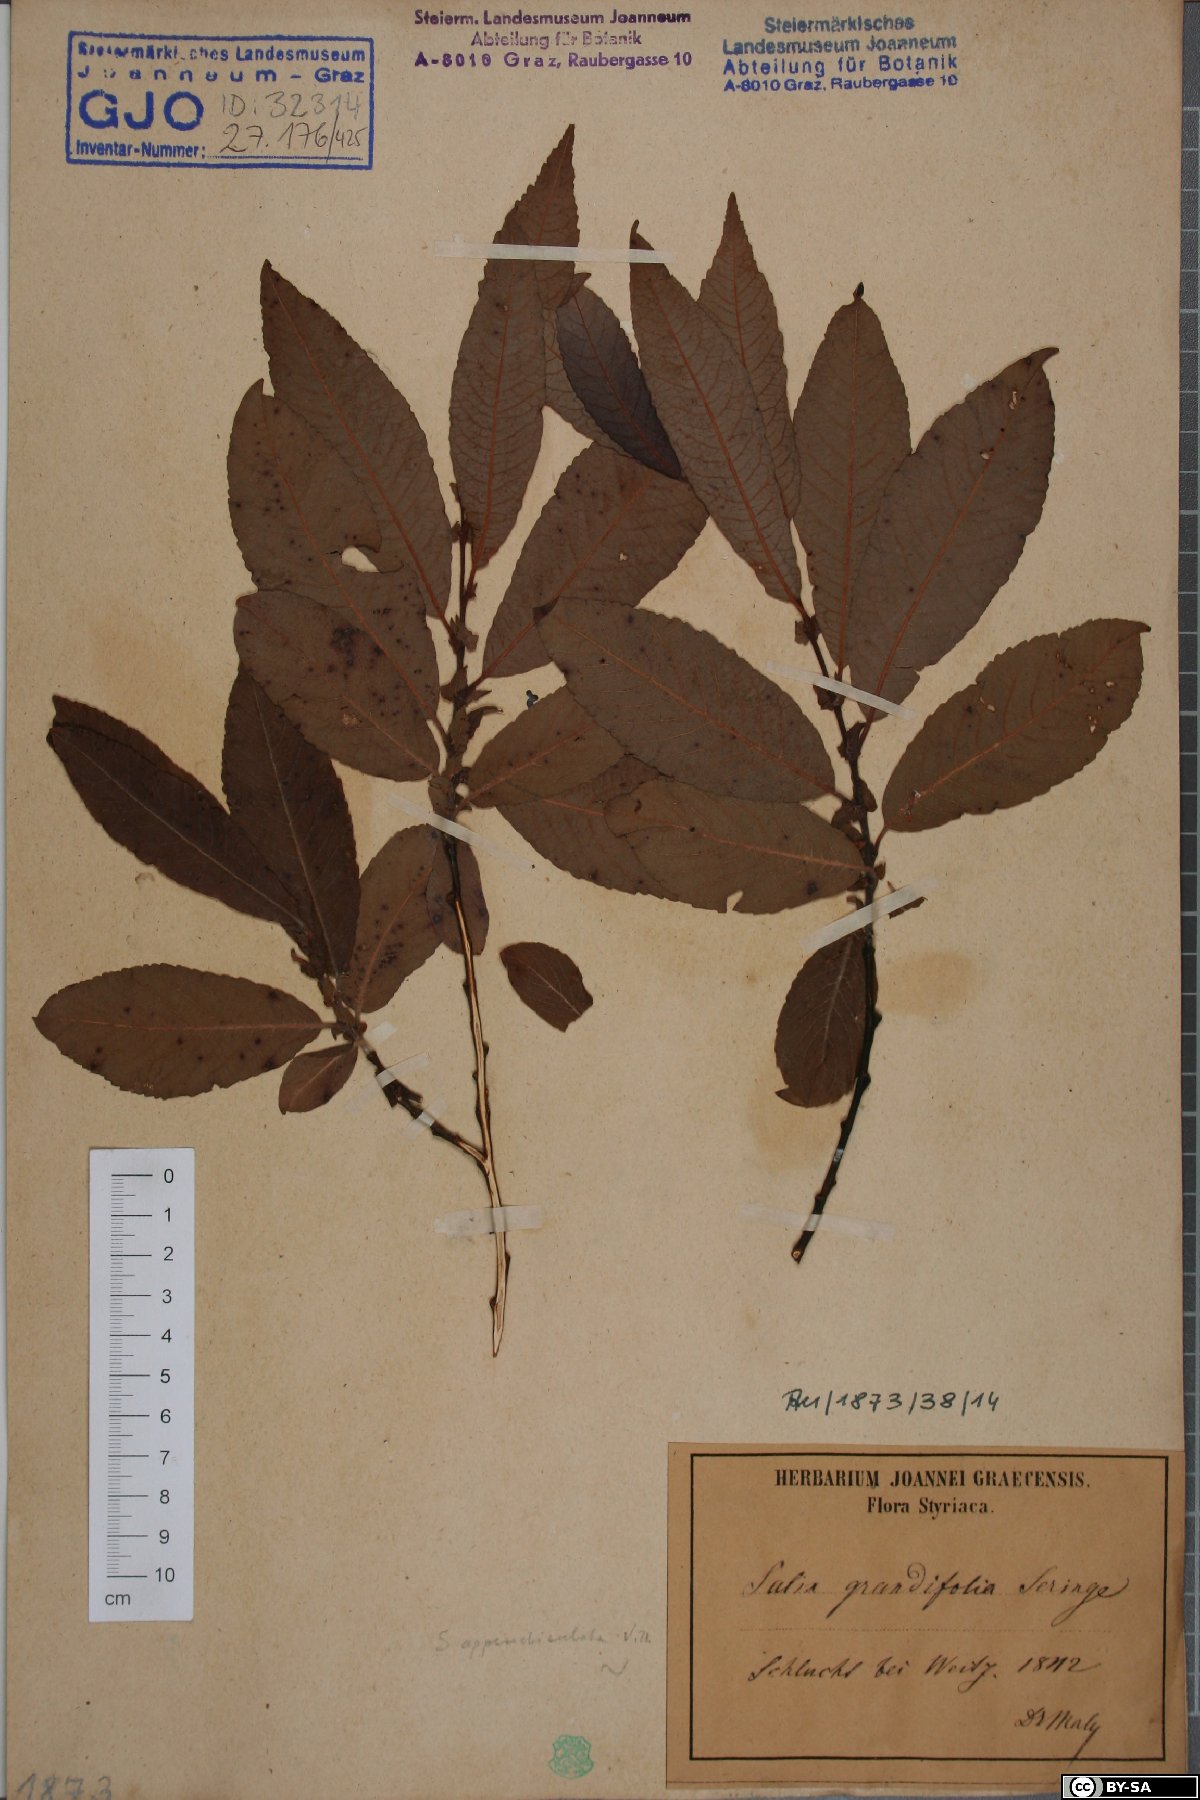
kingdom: Plantae
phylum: Tracheophyta
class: Magnoliopsida
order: Malpighiales
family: Salicaceae
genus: Salix
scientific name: Salix appendiculata
